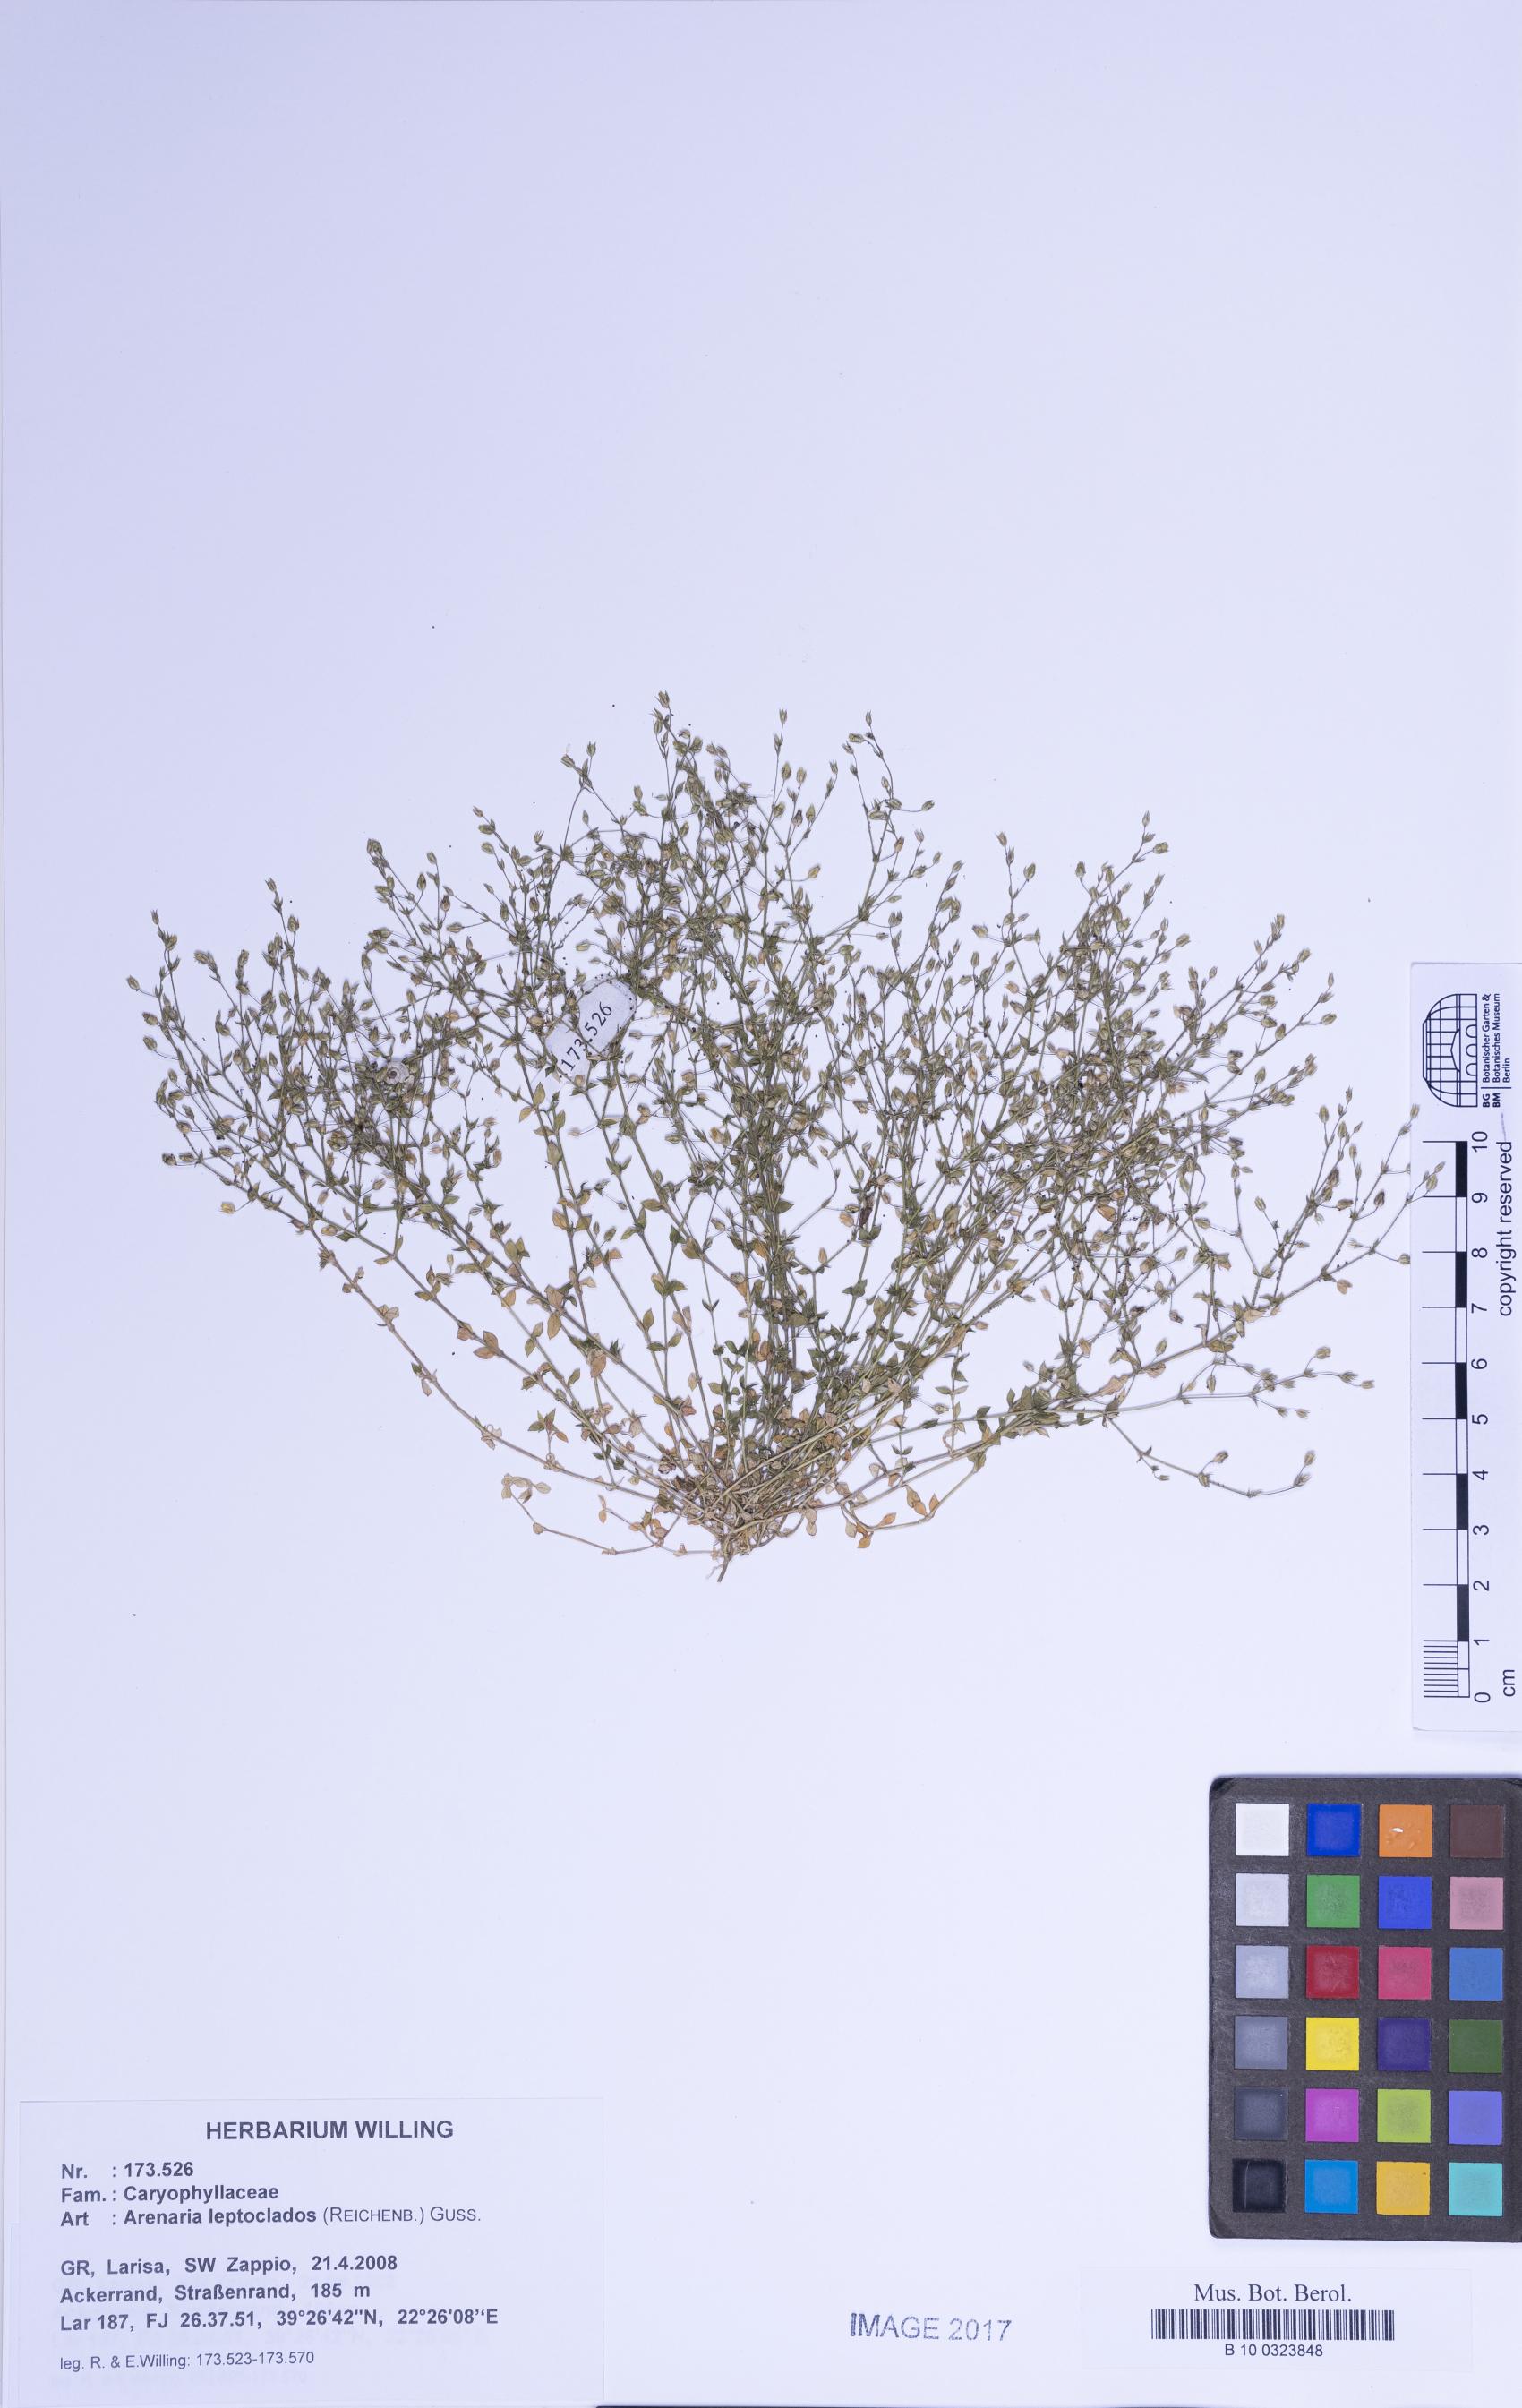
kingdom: Plantae
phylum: Tracheophyta
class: Magnoliopsida
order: Caryophyllales
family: Caryophyllaceae
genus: Arenaria
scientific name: Arenaria leptoclados
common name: Thyme-leaved sandwort
